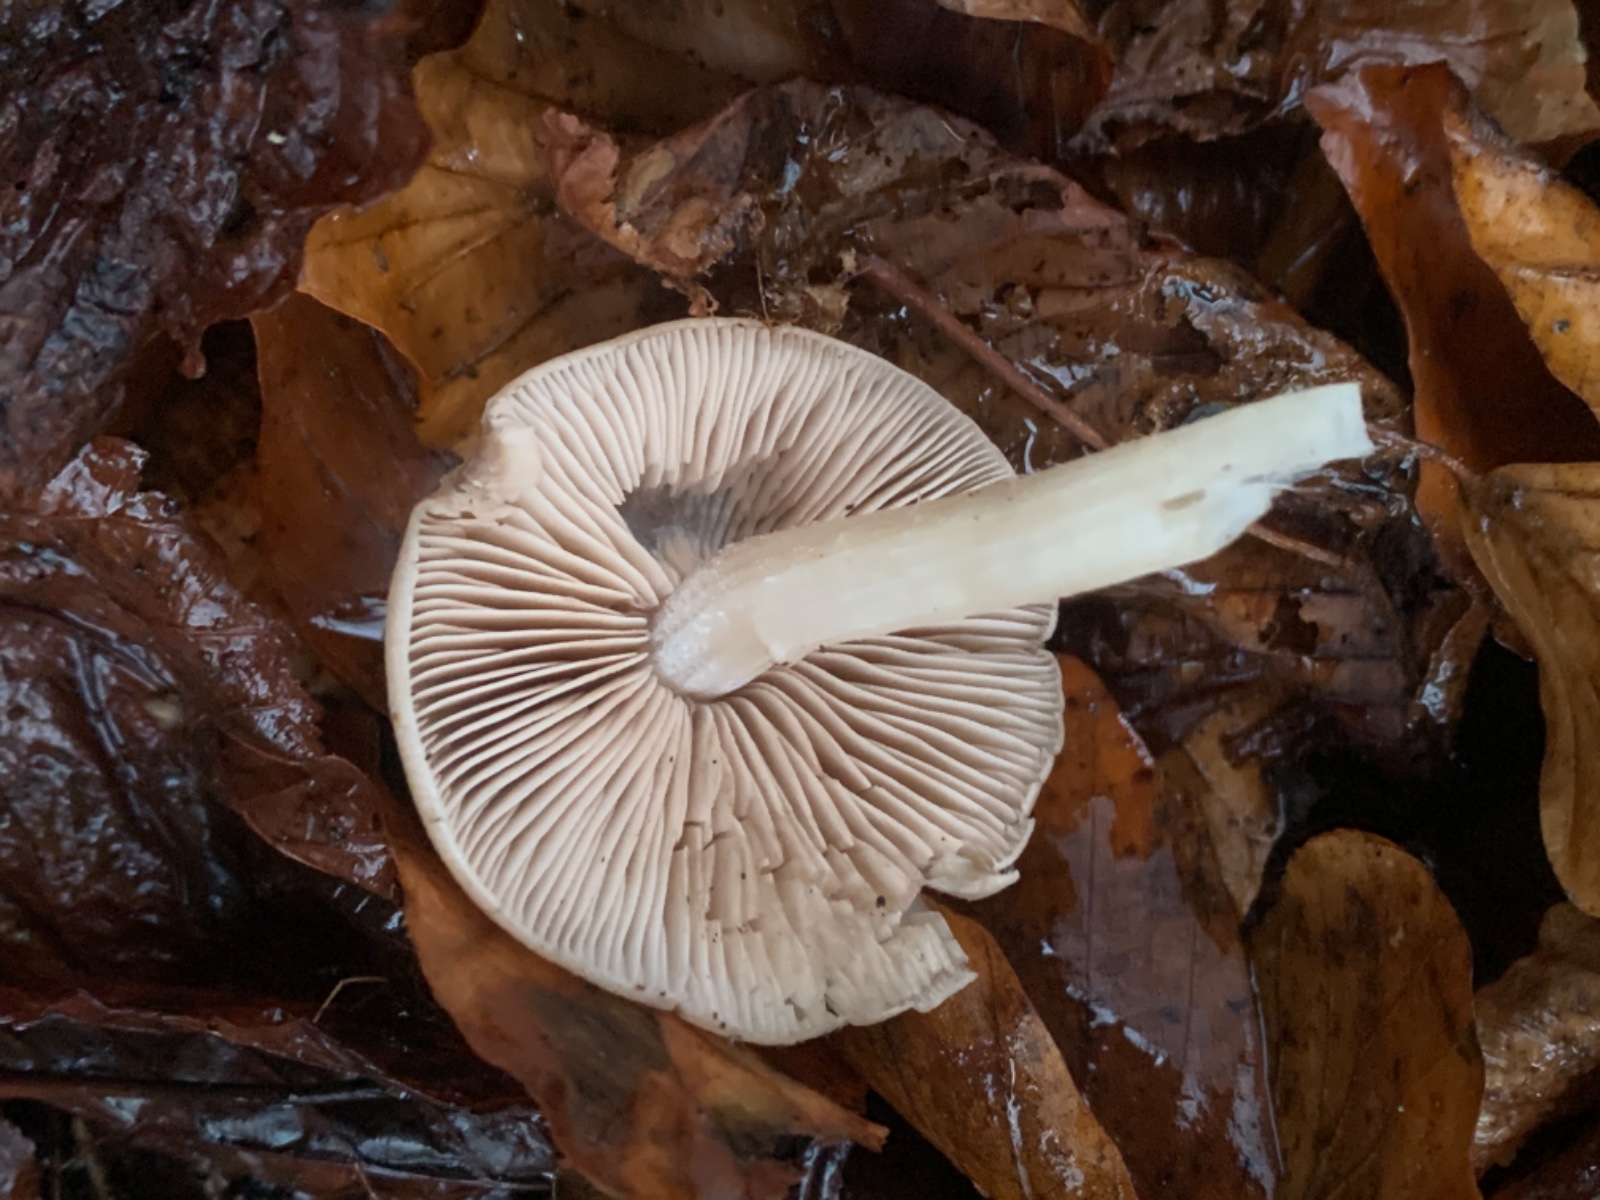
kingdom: Fungi
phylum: Basidiomycota
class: Agaricomycetes
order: Agaricales
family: Psathyrellaceae
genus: Homophron
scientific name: Homophron spadiceum
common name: daddelbrun mørkhat
